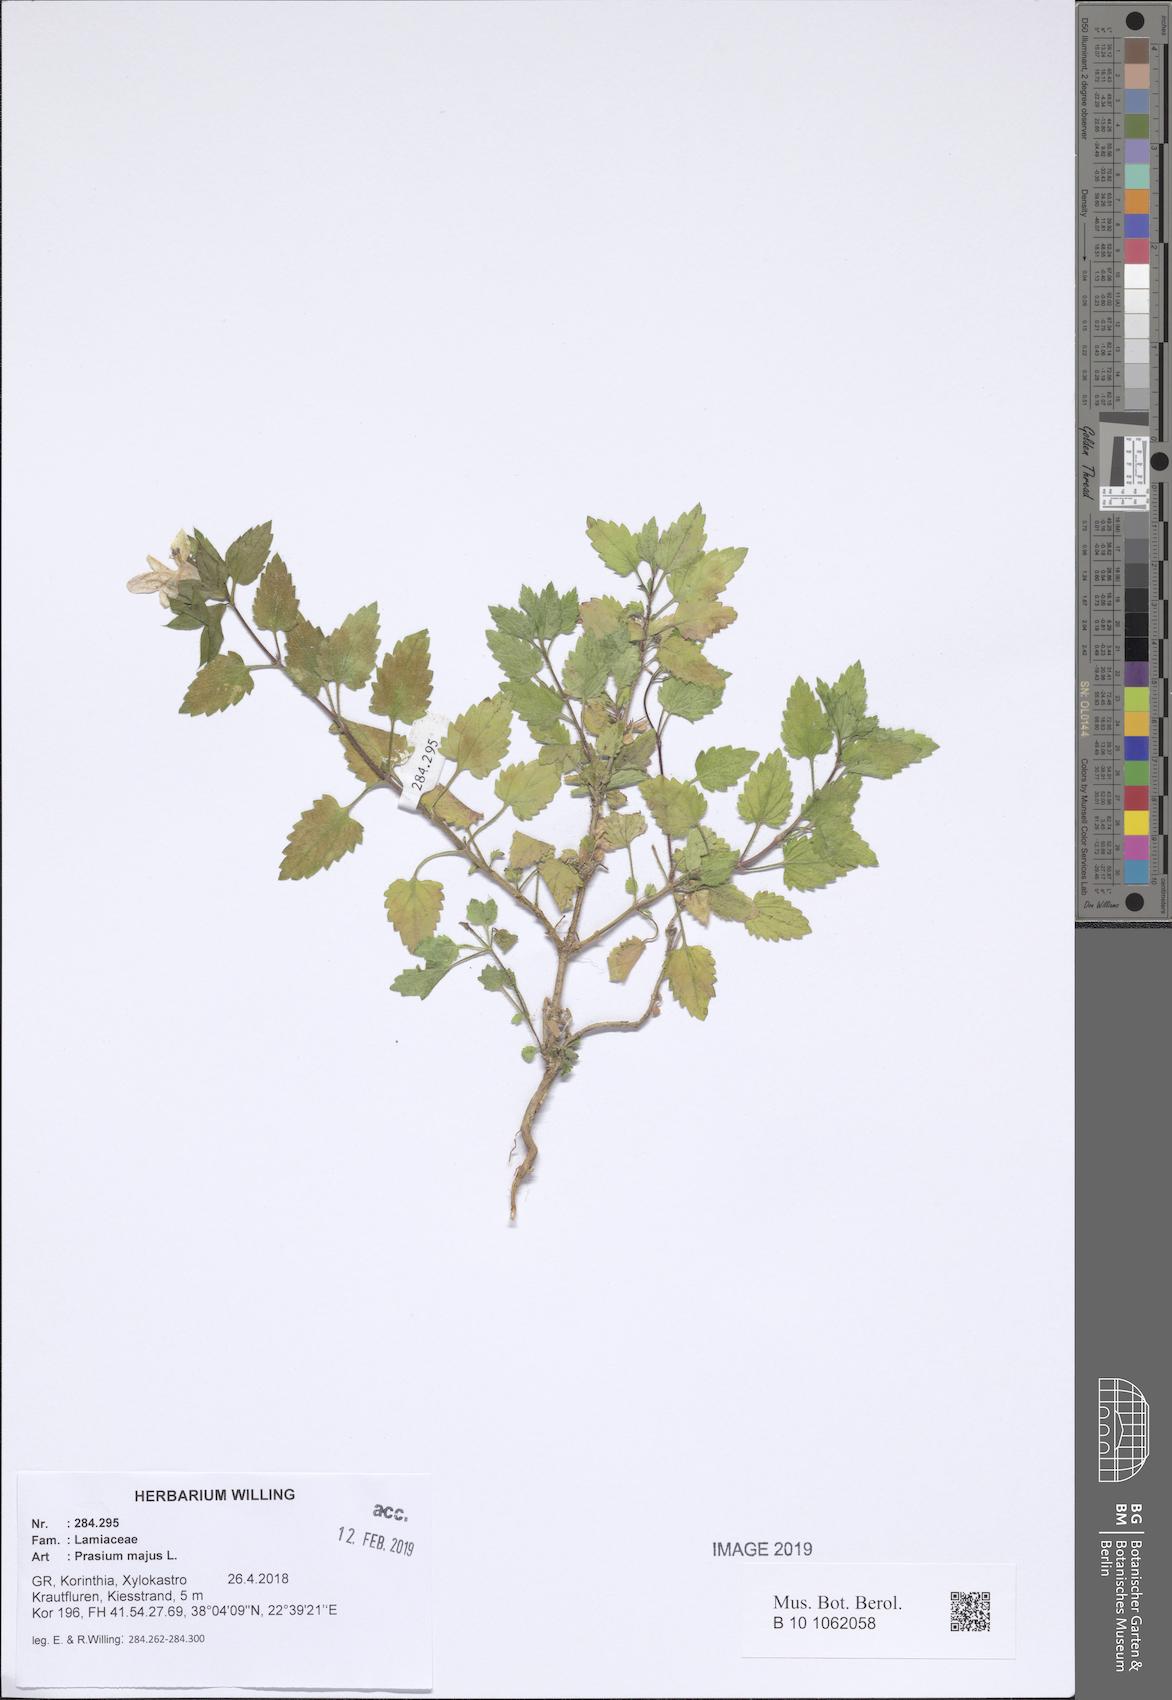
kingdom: Plantae
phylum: Tracheophyta
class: Magnoliopsida
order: Lamiales
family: Lamiaceae
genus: Prasium
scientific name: Prasium majus
